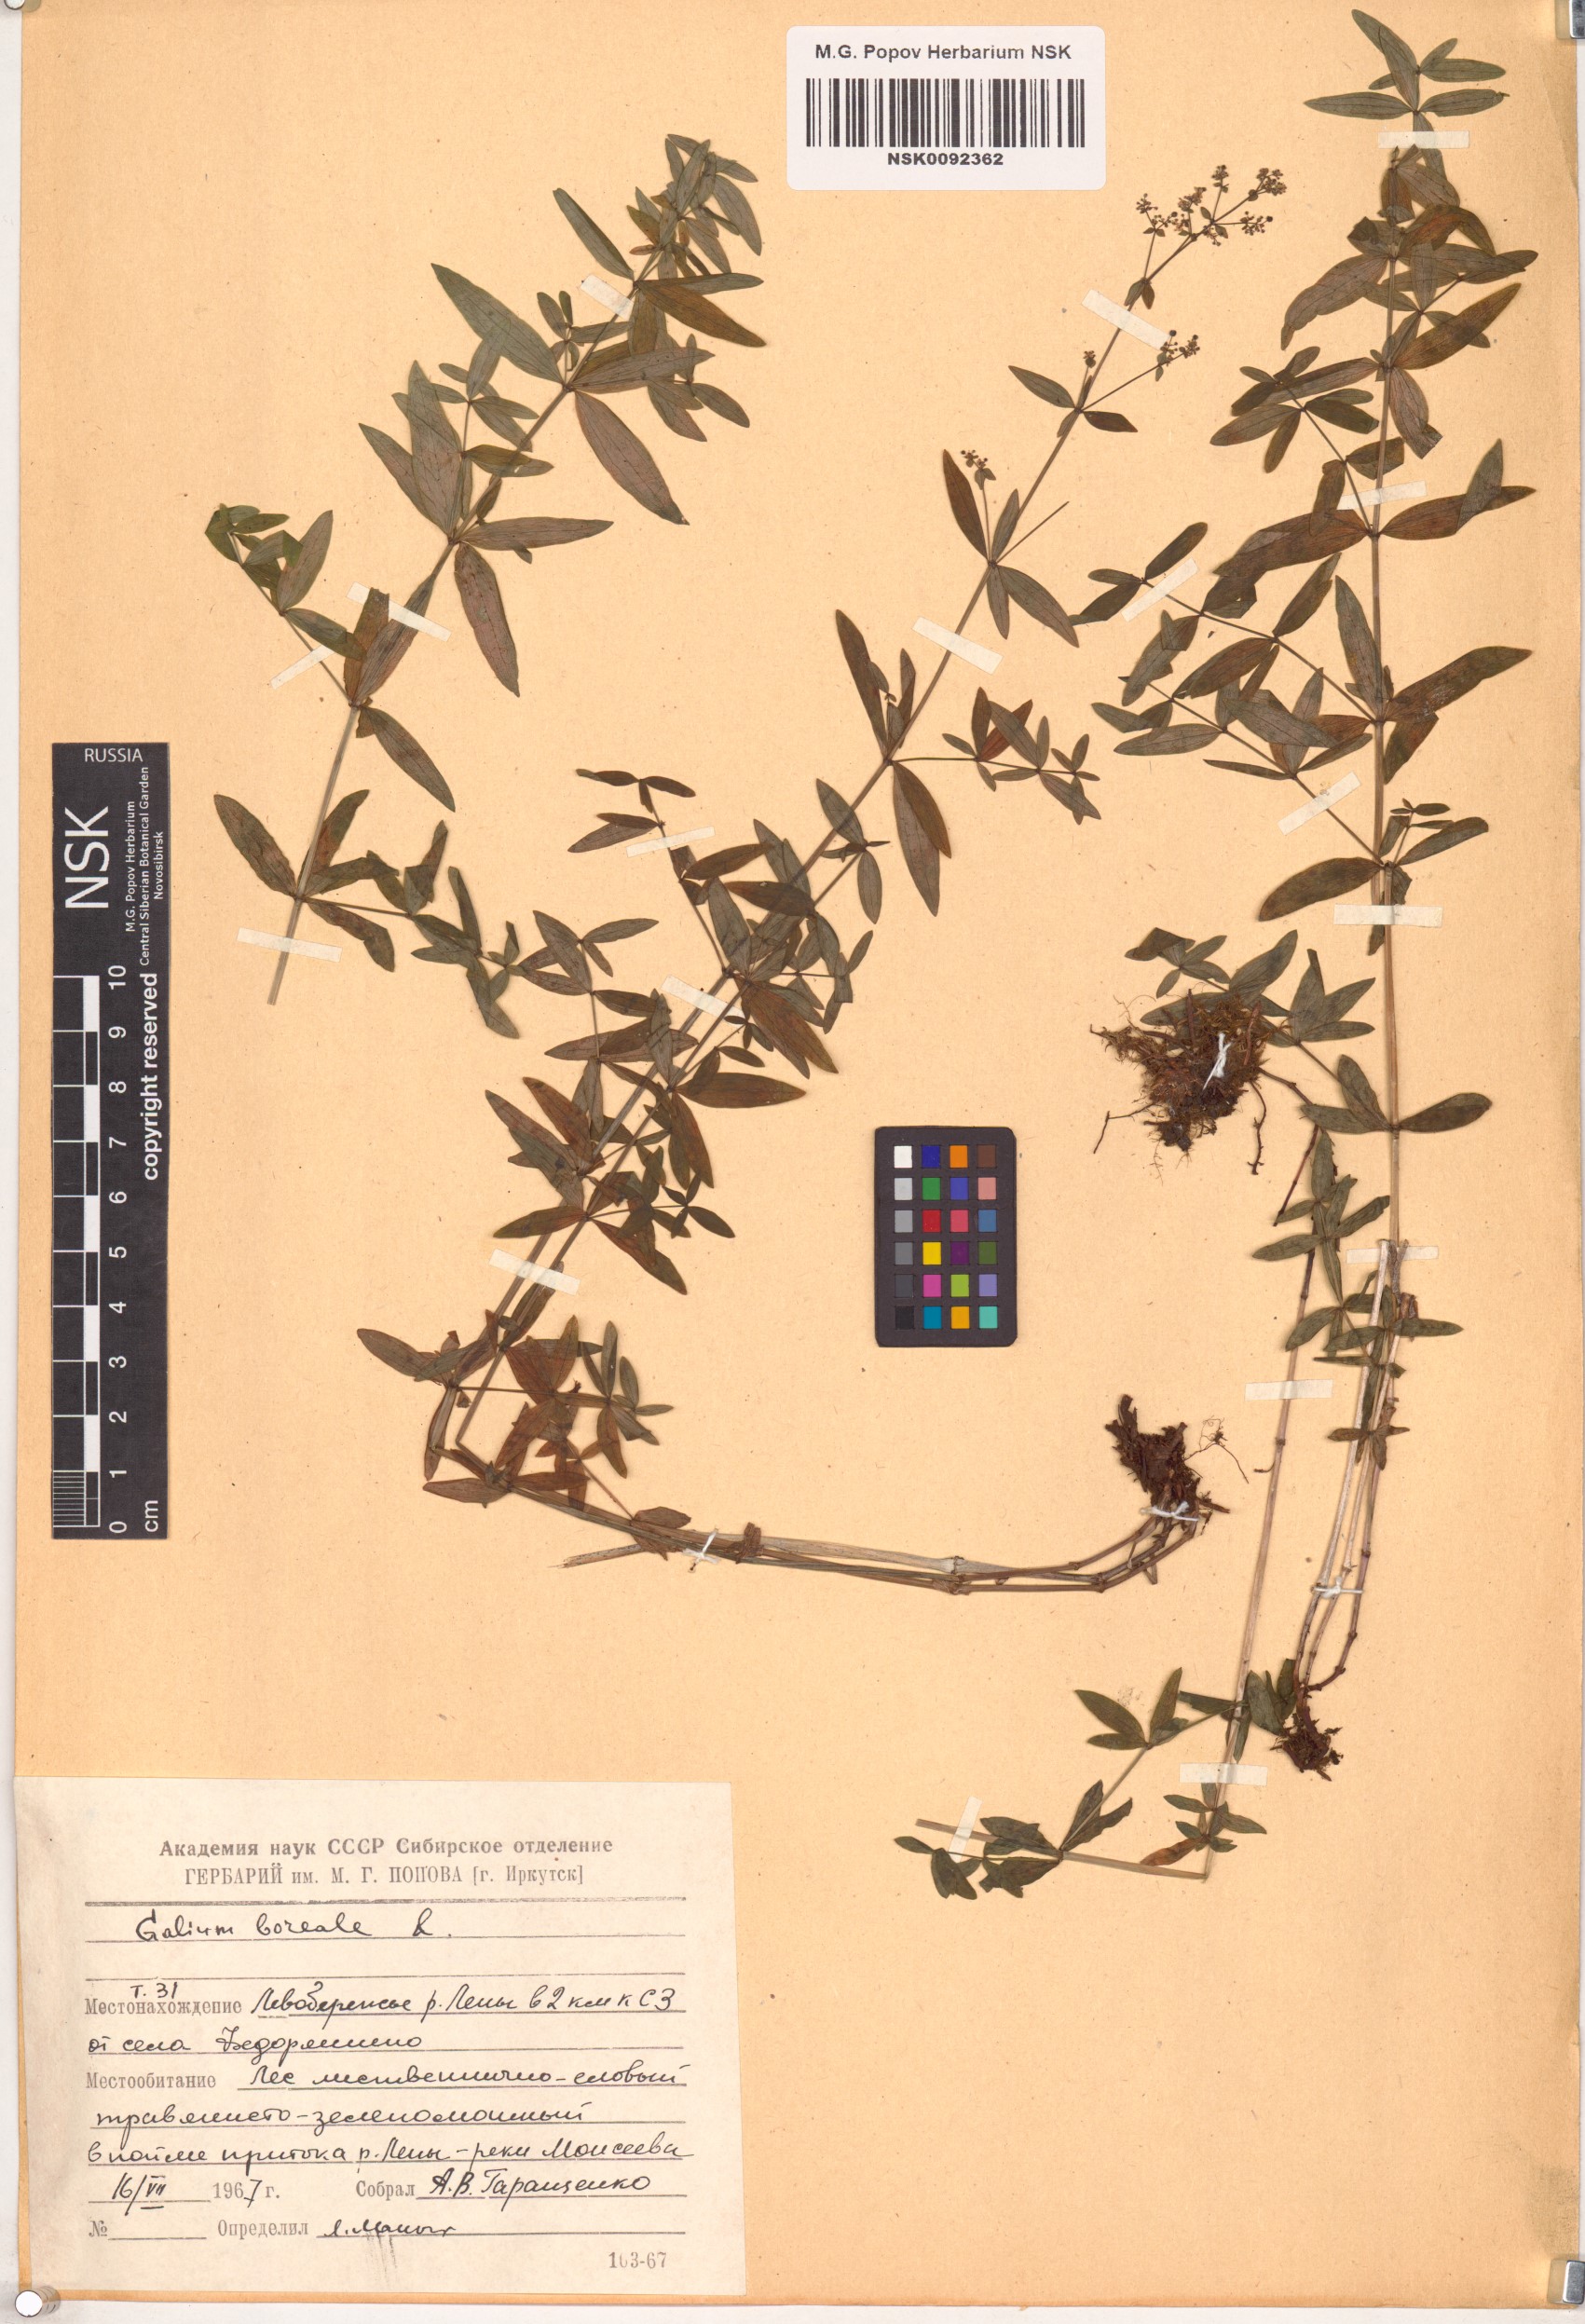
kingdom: Plantae
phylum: Tracheophyta
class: Magnoliopsida
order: Gentianales
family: Rubiaceae
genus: Galium
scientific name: Galium boreale
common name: Northern bedstraw
